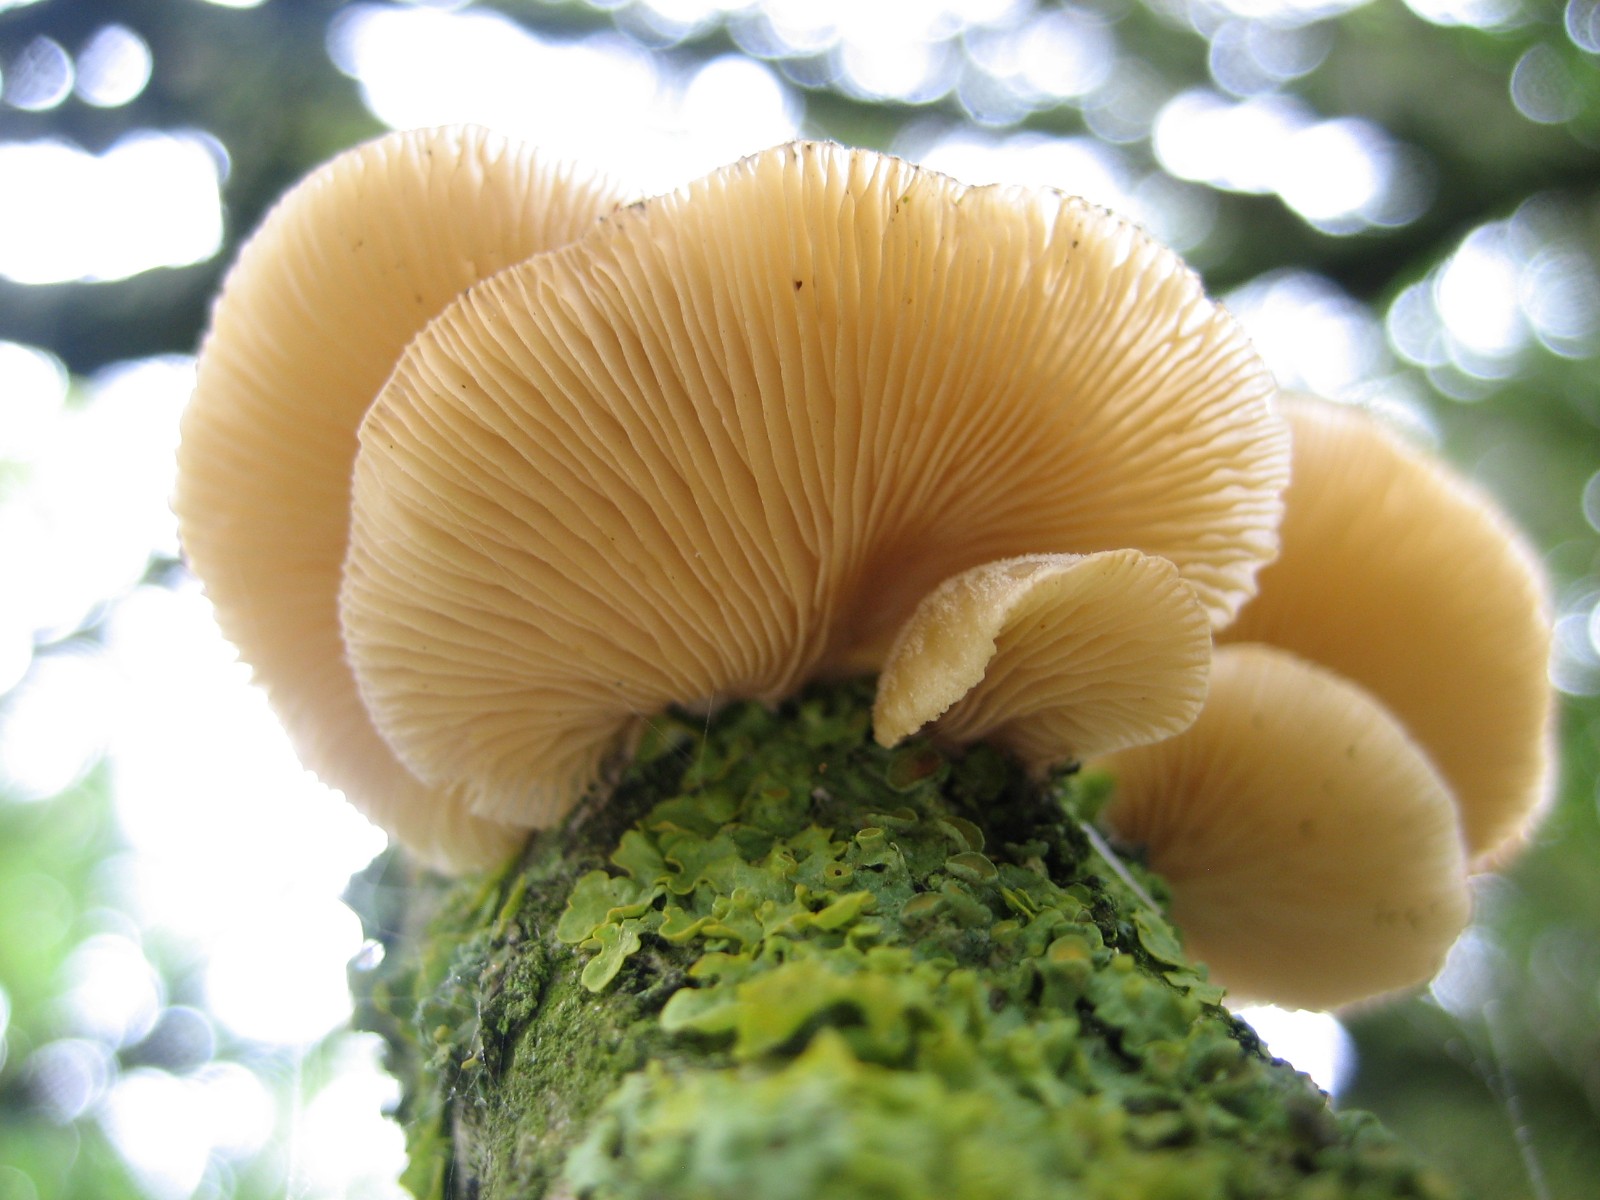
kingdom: Fungi
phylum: Basidiomycota
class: Agaricomycetes
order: Agaricales
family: Pleurotaceae
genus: Hohenbuehelia
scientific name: Hohenbuehelia mastrucata
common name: skællet filthat
